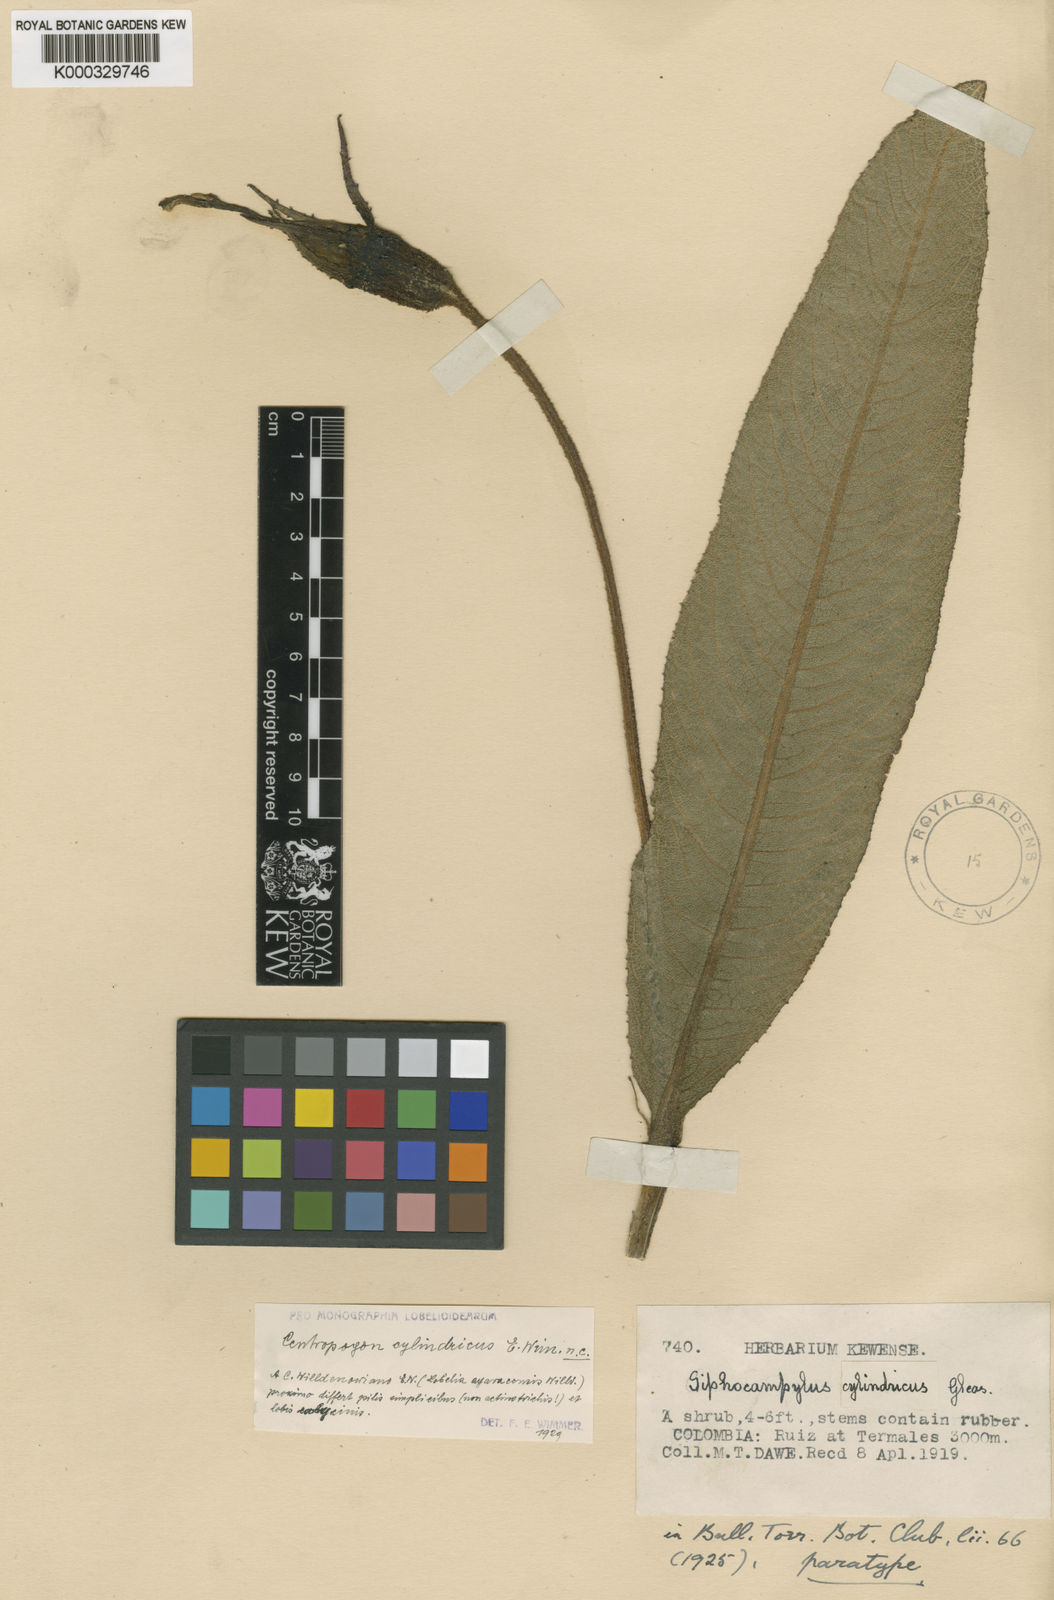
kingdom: Plantae
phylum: Tracheophyta
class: Magnoliopsida
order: Asterales
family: Campanulaceae
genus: Centropogon
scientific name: Centropogon ayavacensis
